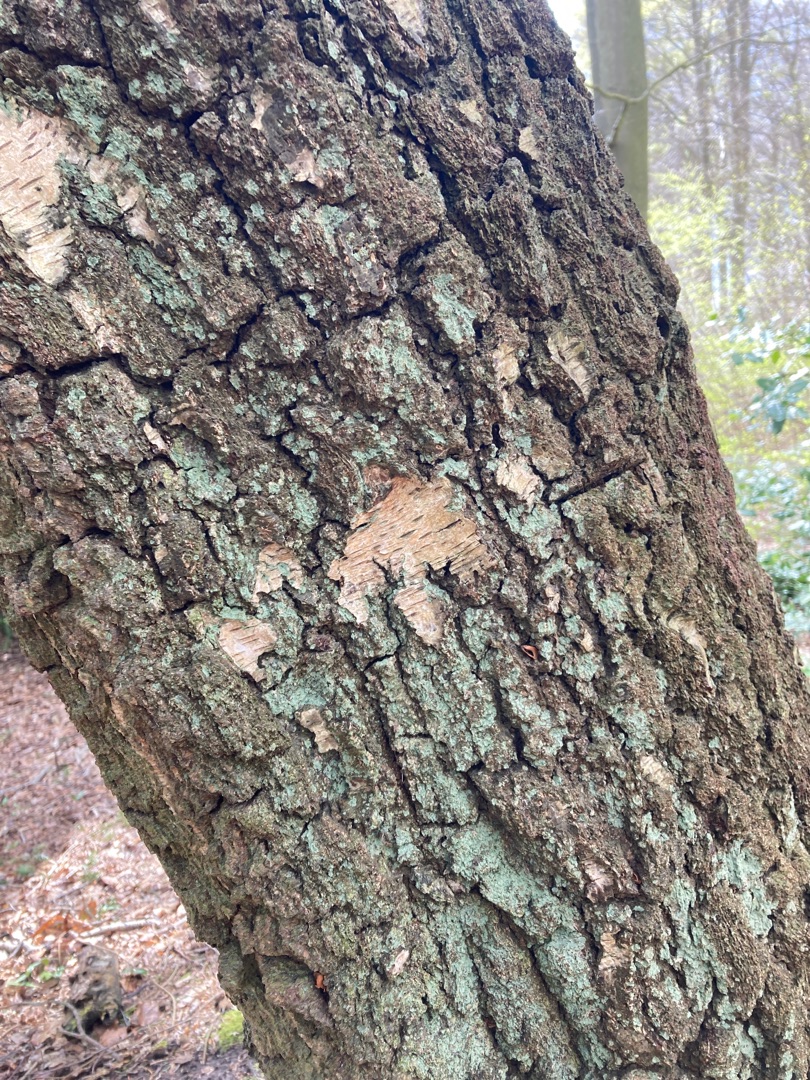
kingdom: Fungi
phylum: Ascomycota
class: Lecanoromycetes
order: Lecanorales
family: Stereocaulaceae
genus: Lepraria
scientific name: Lepraria
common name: Støvlav
